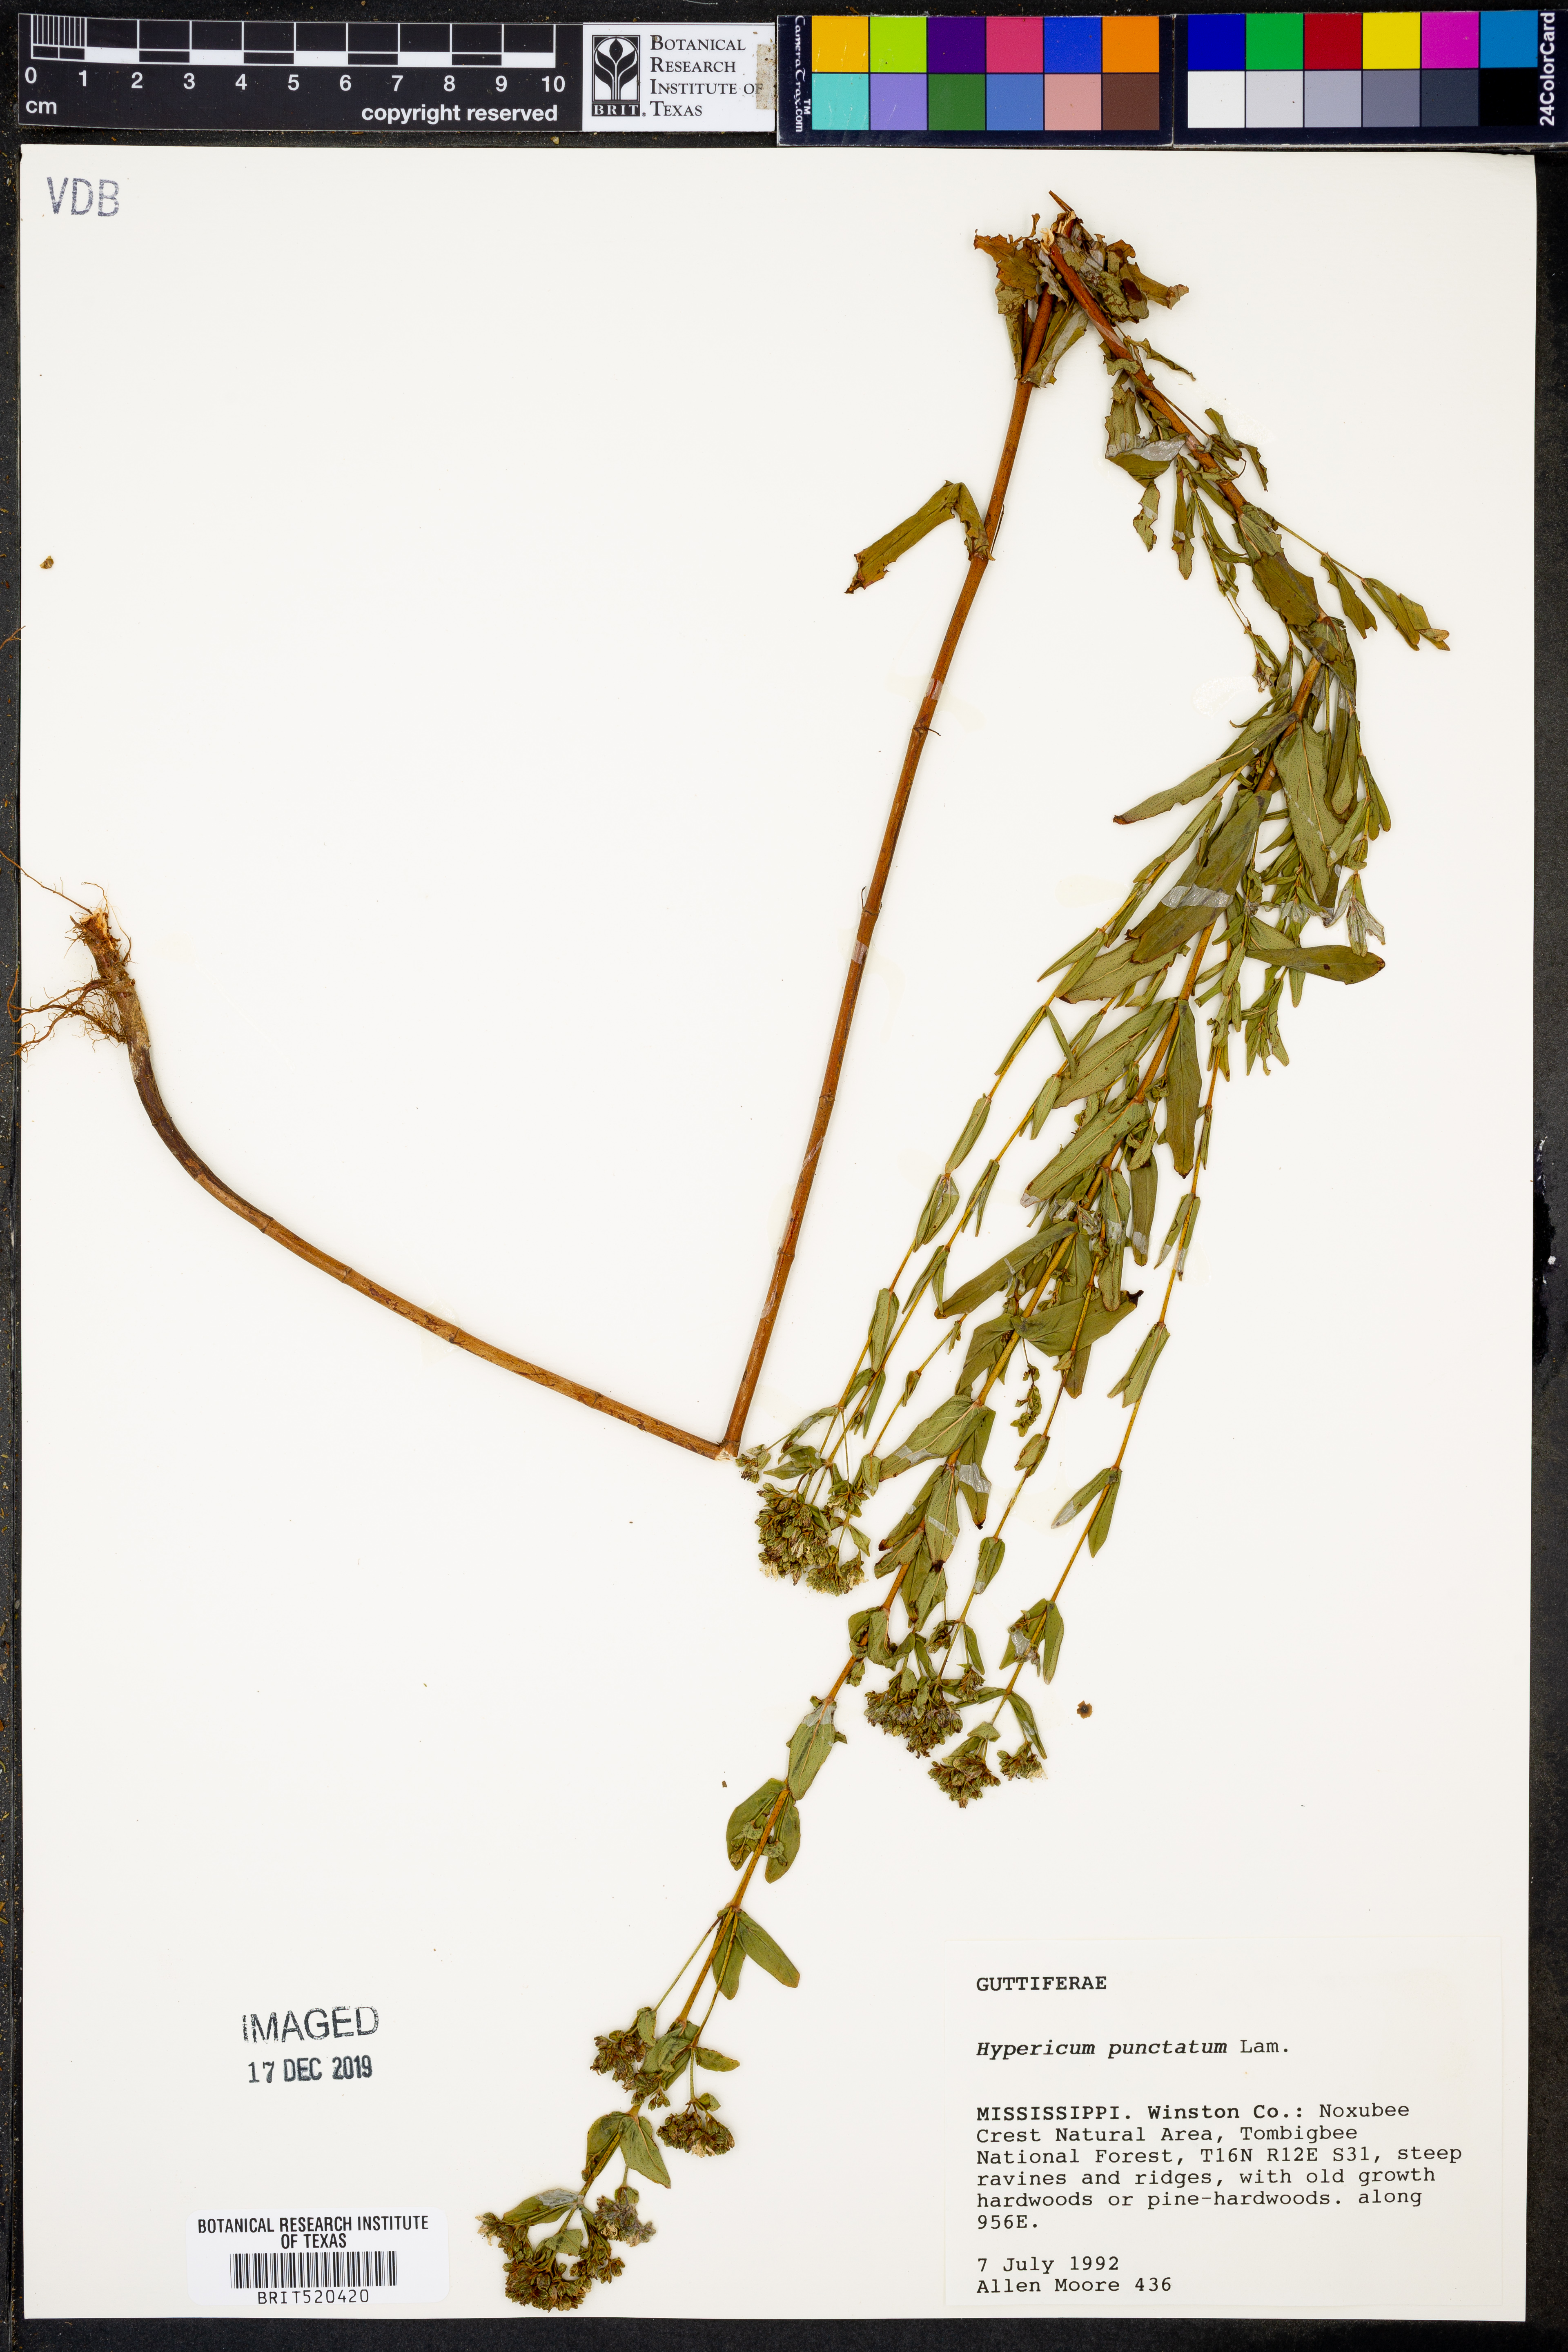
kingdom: Plantae
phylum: Tracheophyta
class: Magnoliopsida
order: Malpighiales
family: Hypericaceae
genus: Hypericum
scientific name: Hypericum punctatum
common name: Spotted st. john's-wort
